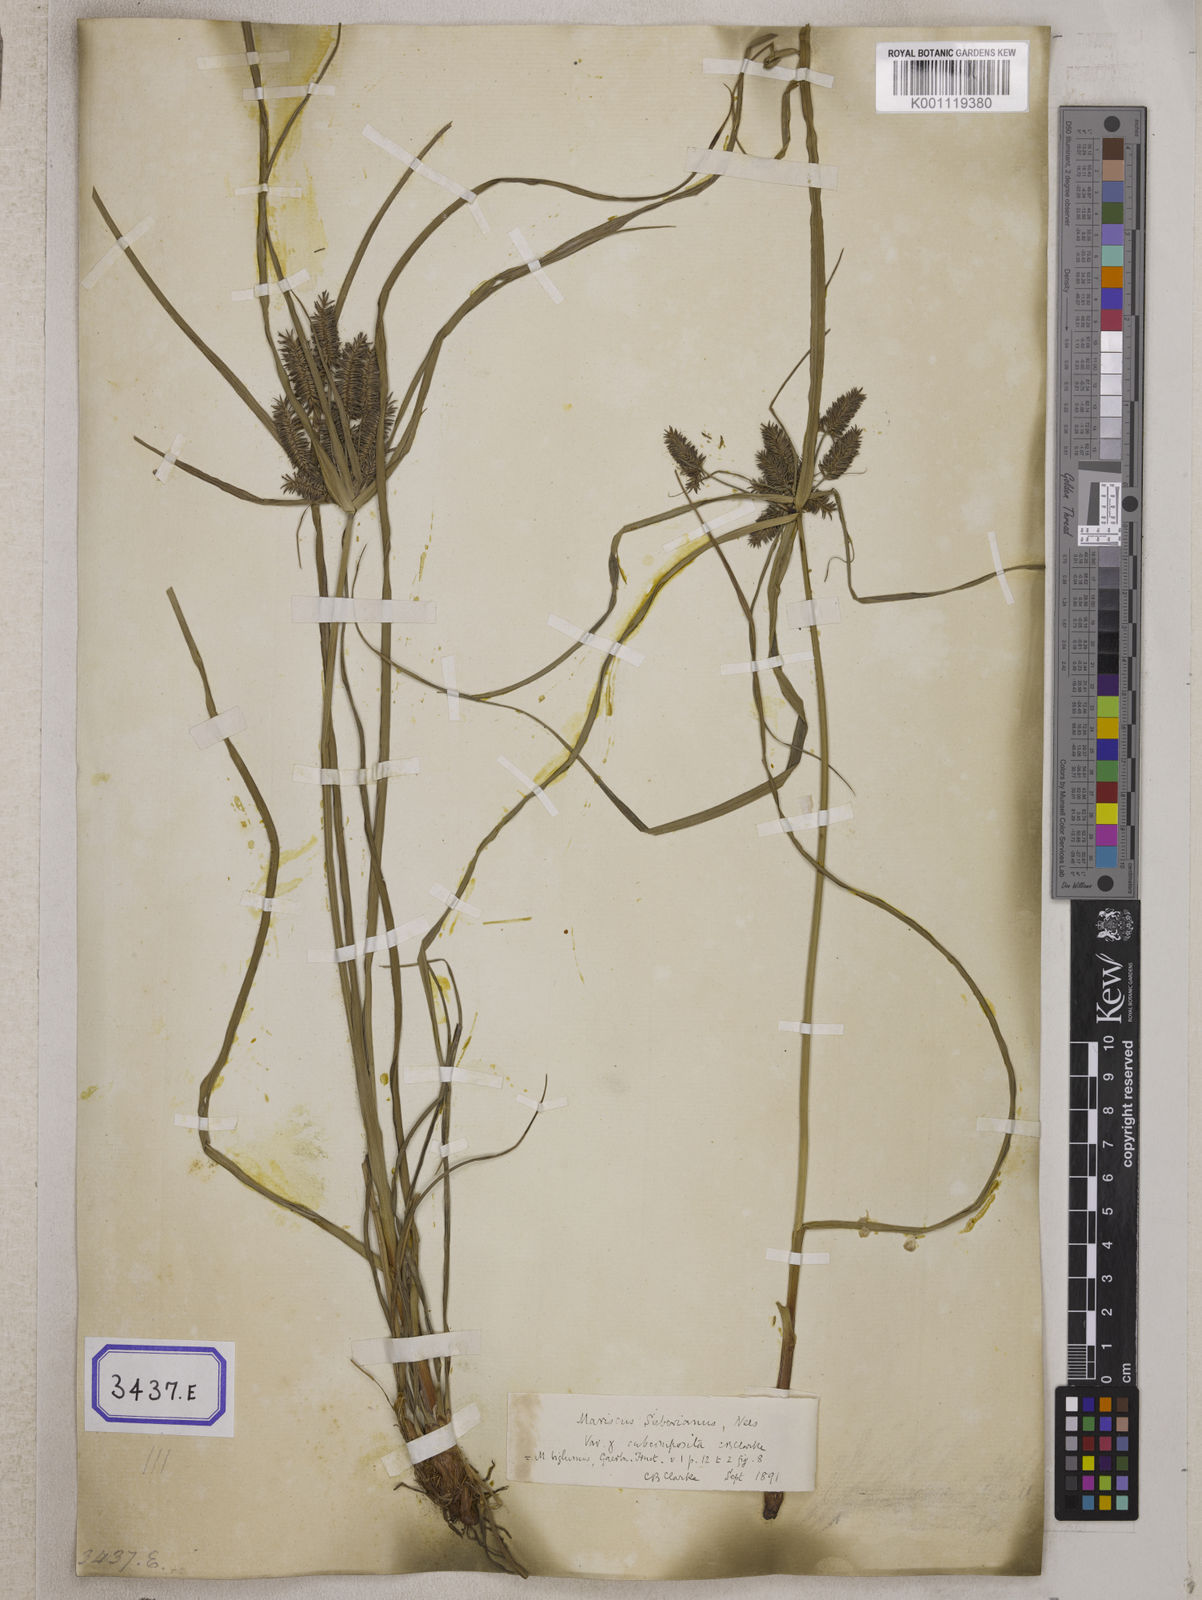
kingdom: Plantae
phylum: Tracheophyta
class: Liliopsida
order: Poales
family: Cyperaceae
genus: Mariscus
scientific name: Mariscus
